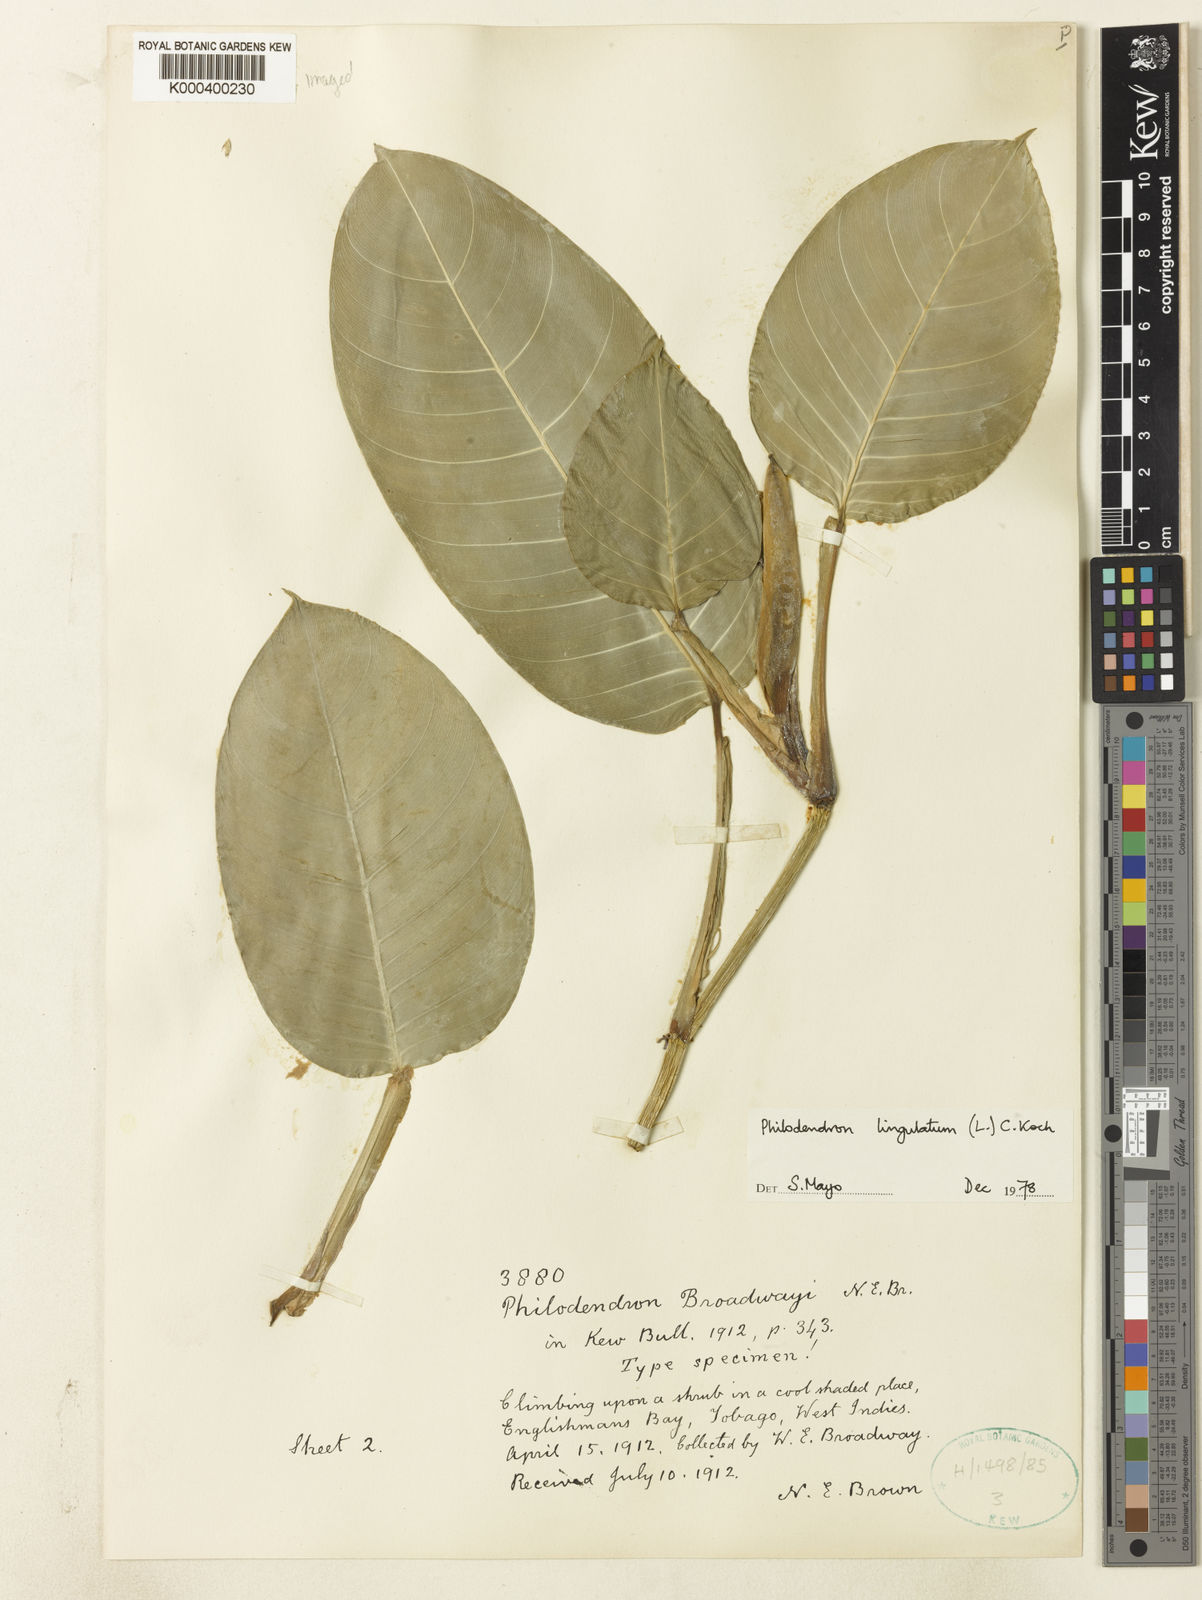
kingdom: Plantae
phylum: Tracheophyta
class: Liliopsida
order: Alismatales
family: Araceae
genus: Philodendron
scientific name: Philodendron venosum
